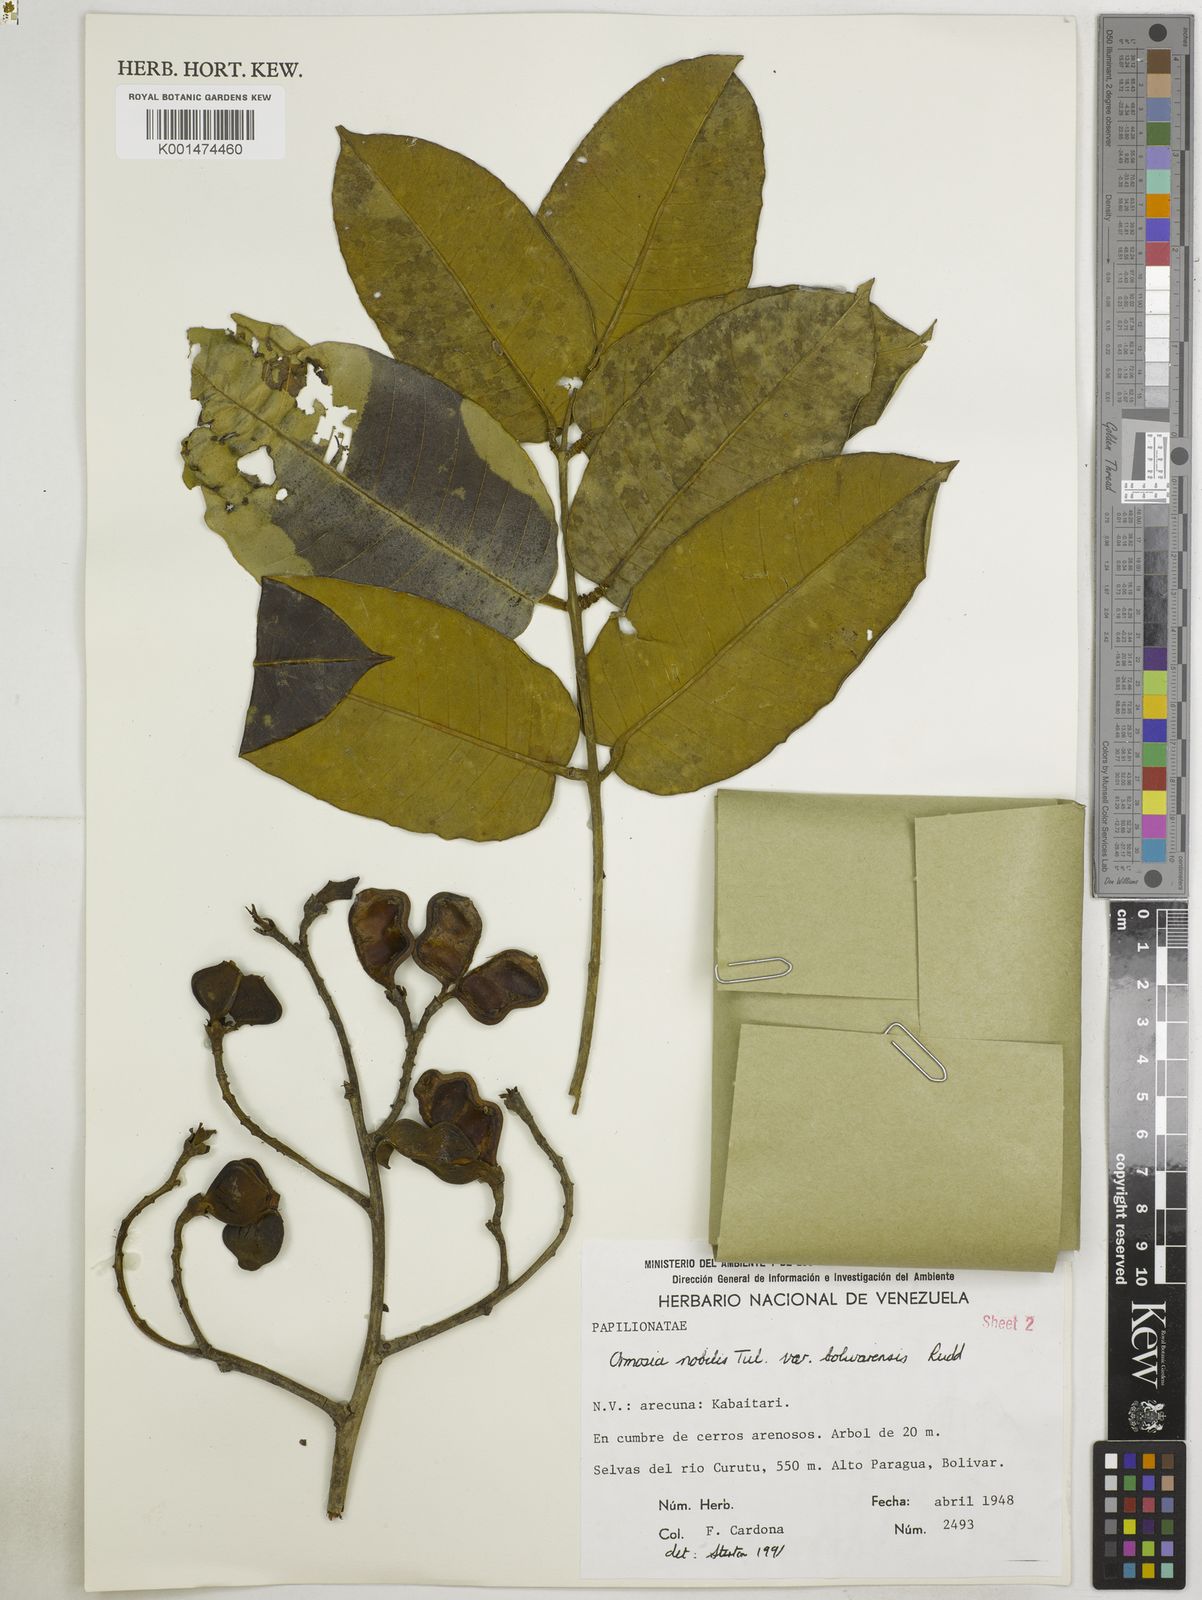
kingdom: Plantae
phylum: Tracheophyta
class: Magnoliopsida
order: Fabales
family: Fabaceae
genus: Ormosia
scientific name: Ormosia cuatrecasasii
